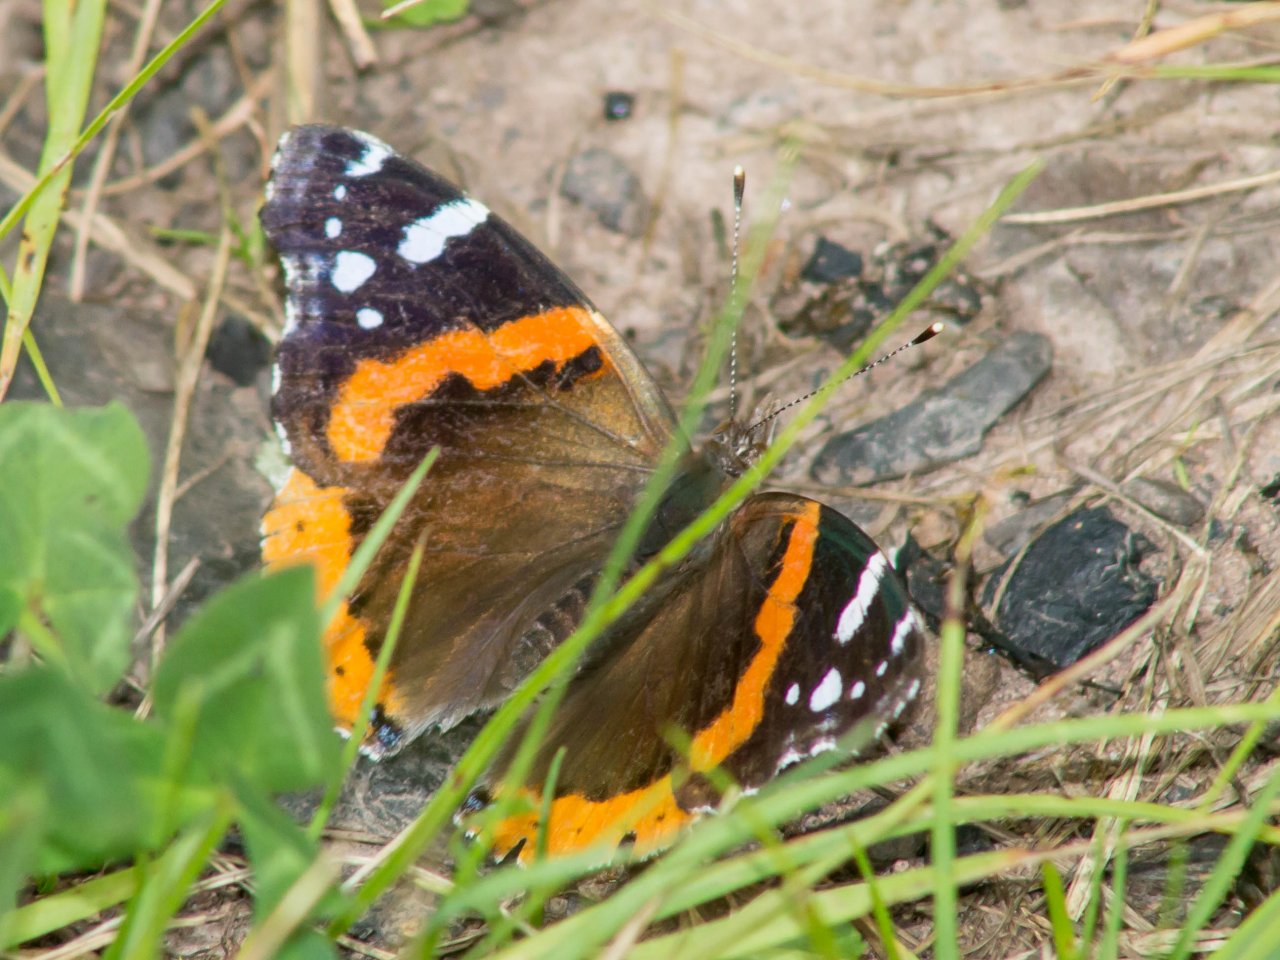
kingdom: Animalia
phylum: Arthropoda
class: Insecta
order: Lepidoptera
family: Nymphalidae
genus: Vanessa
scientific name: Vanessa atalanta
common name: Red Admiral
